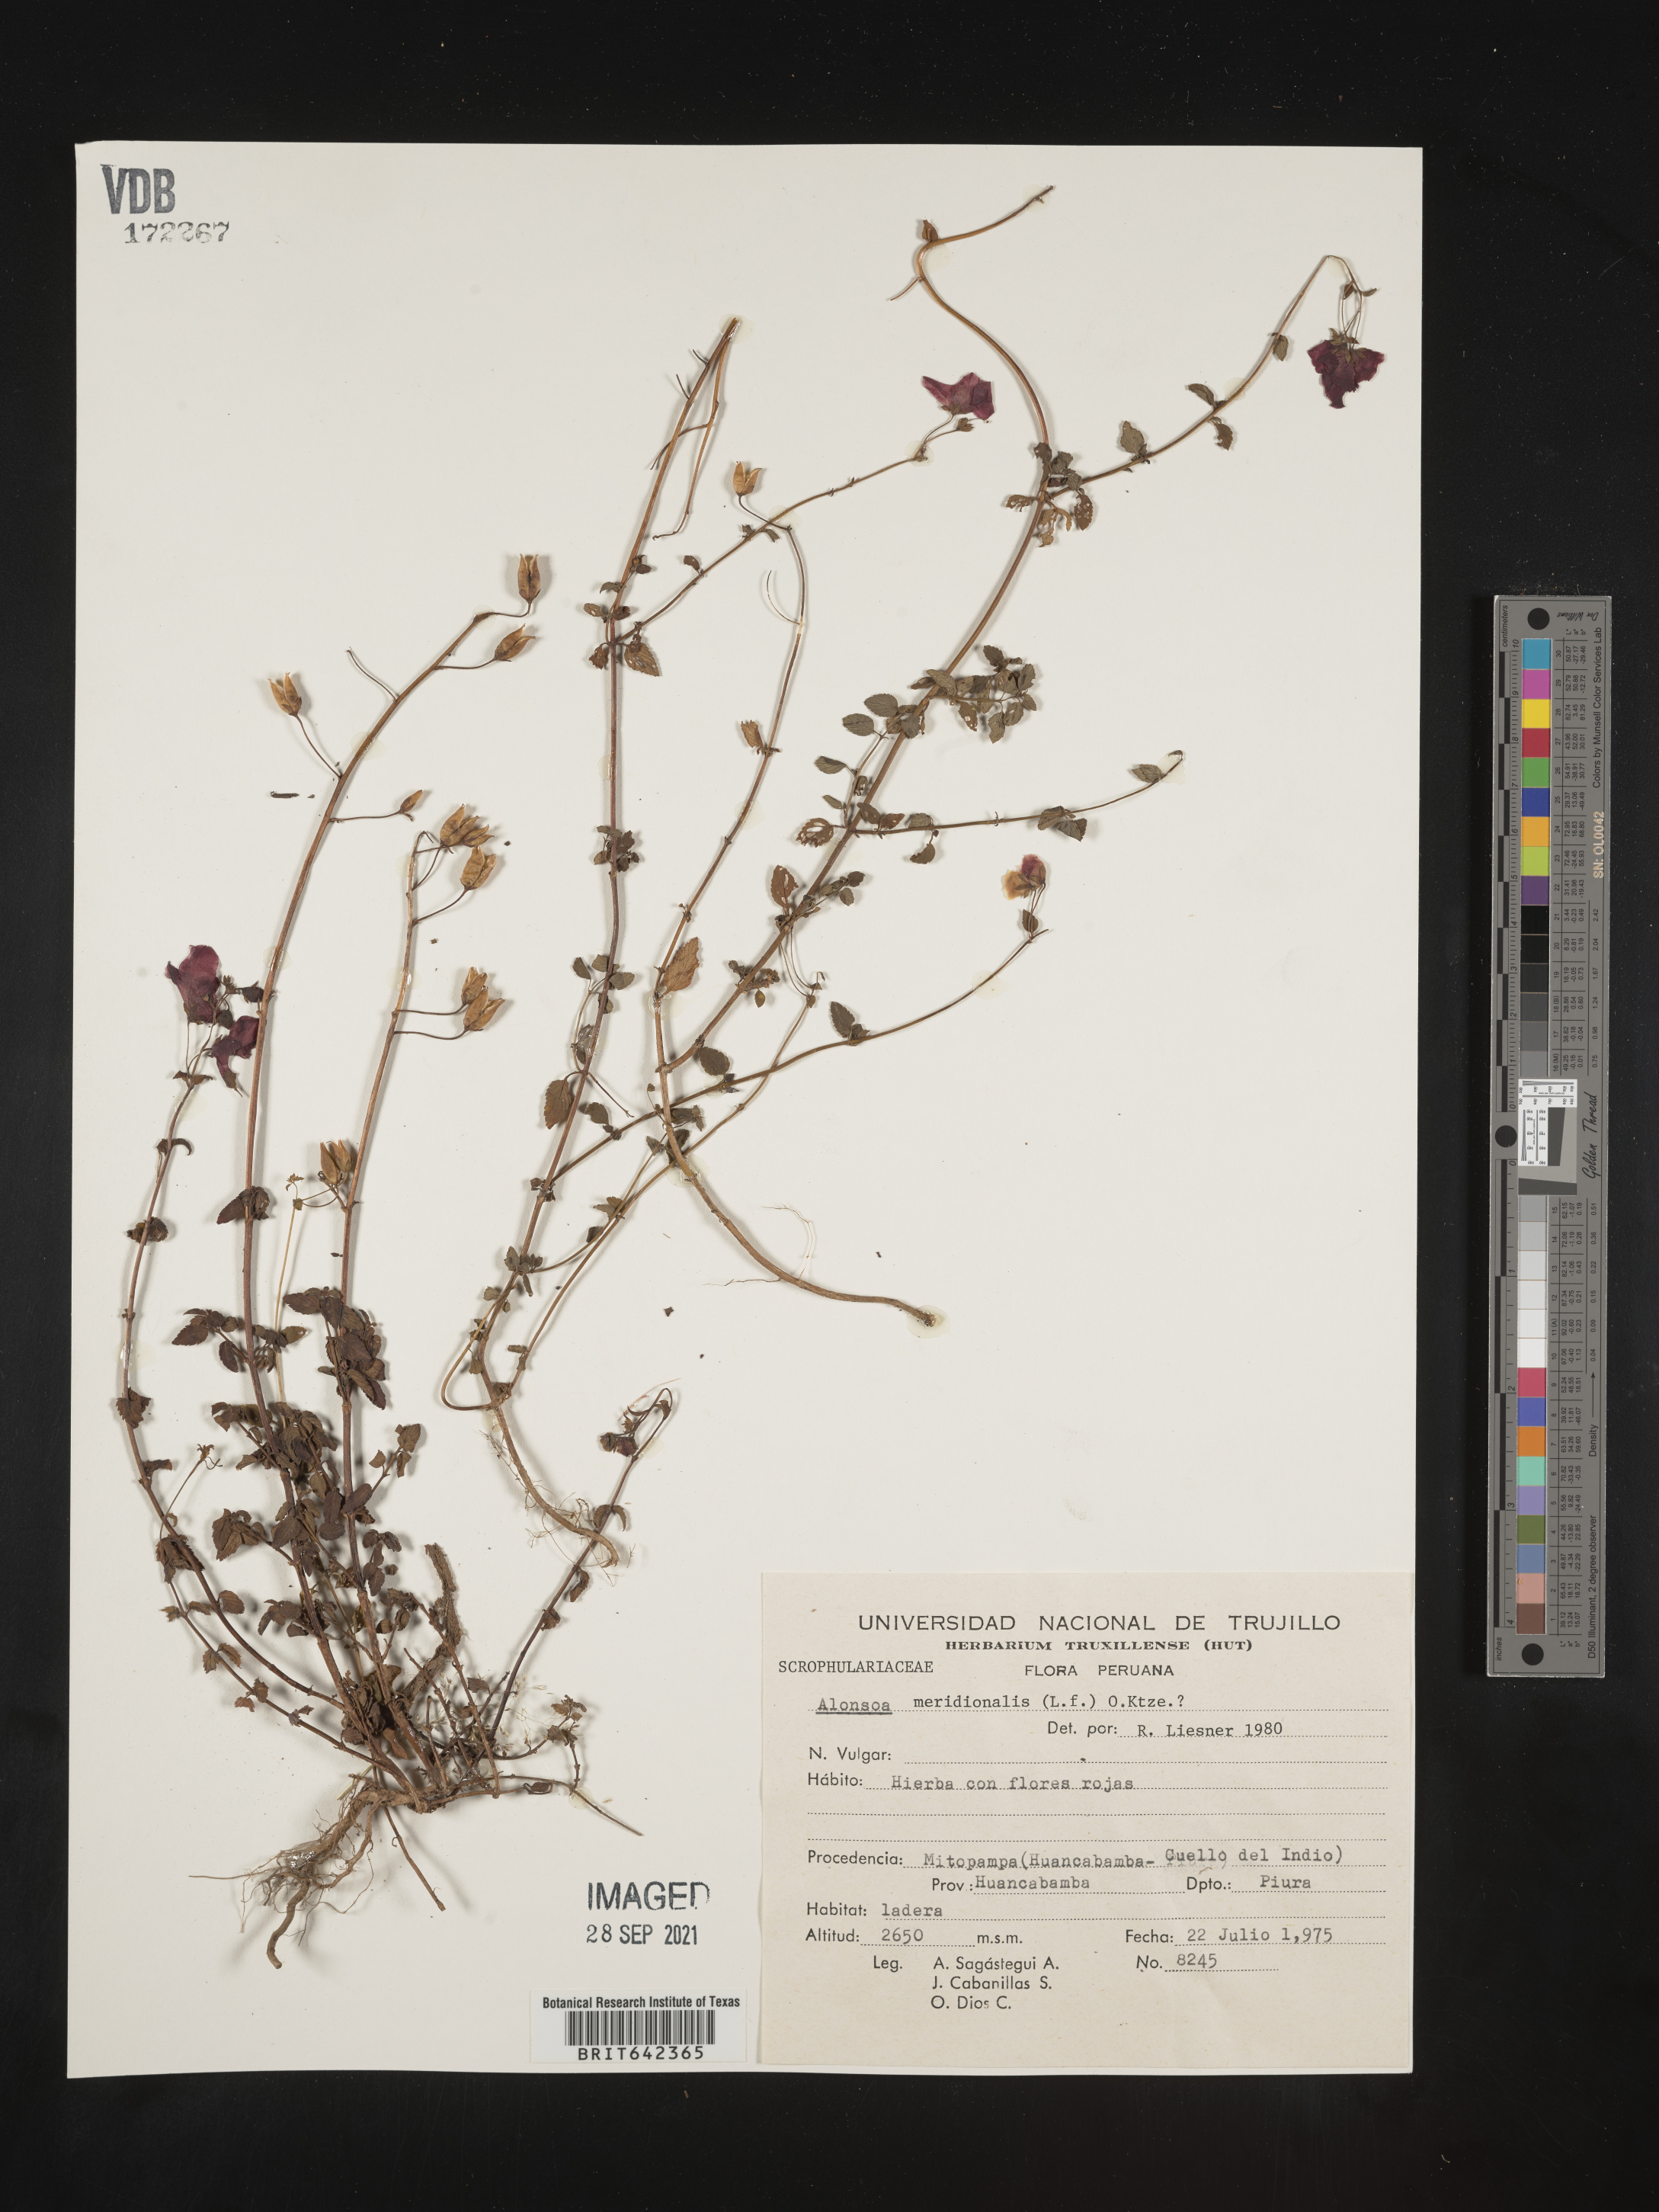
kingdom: Plantae
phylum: Tracheophyta
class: Magnoliopsida
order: Lamiales
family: Scrophulariaceae
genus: Alonsoa
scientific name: Alonsoa
